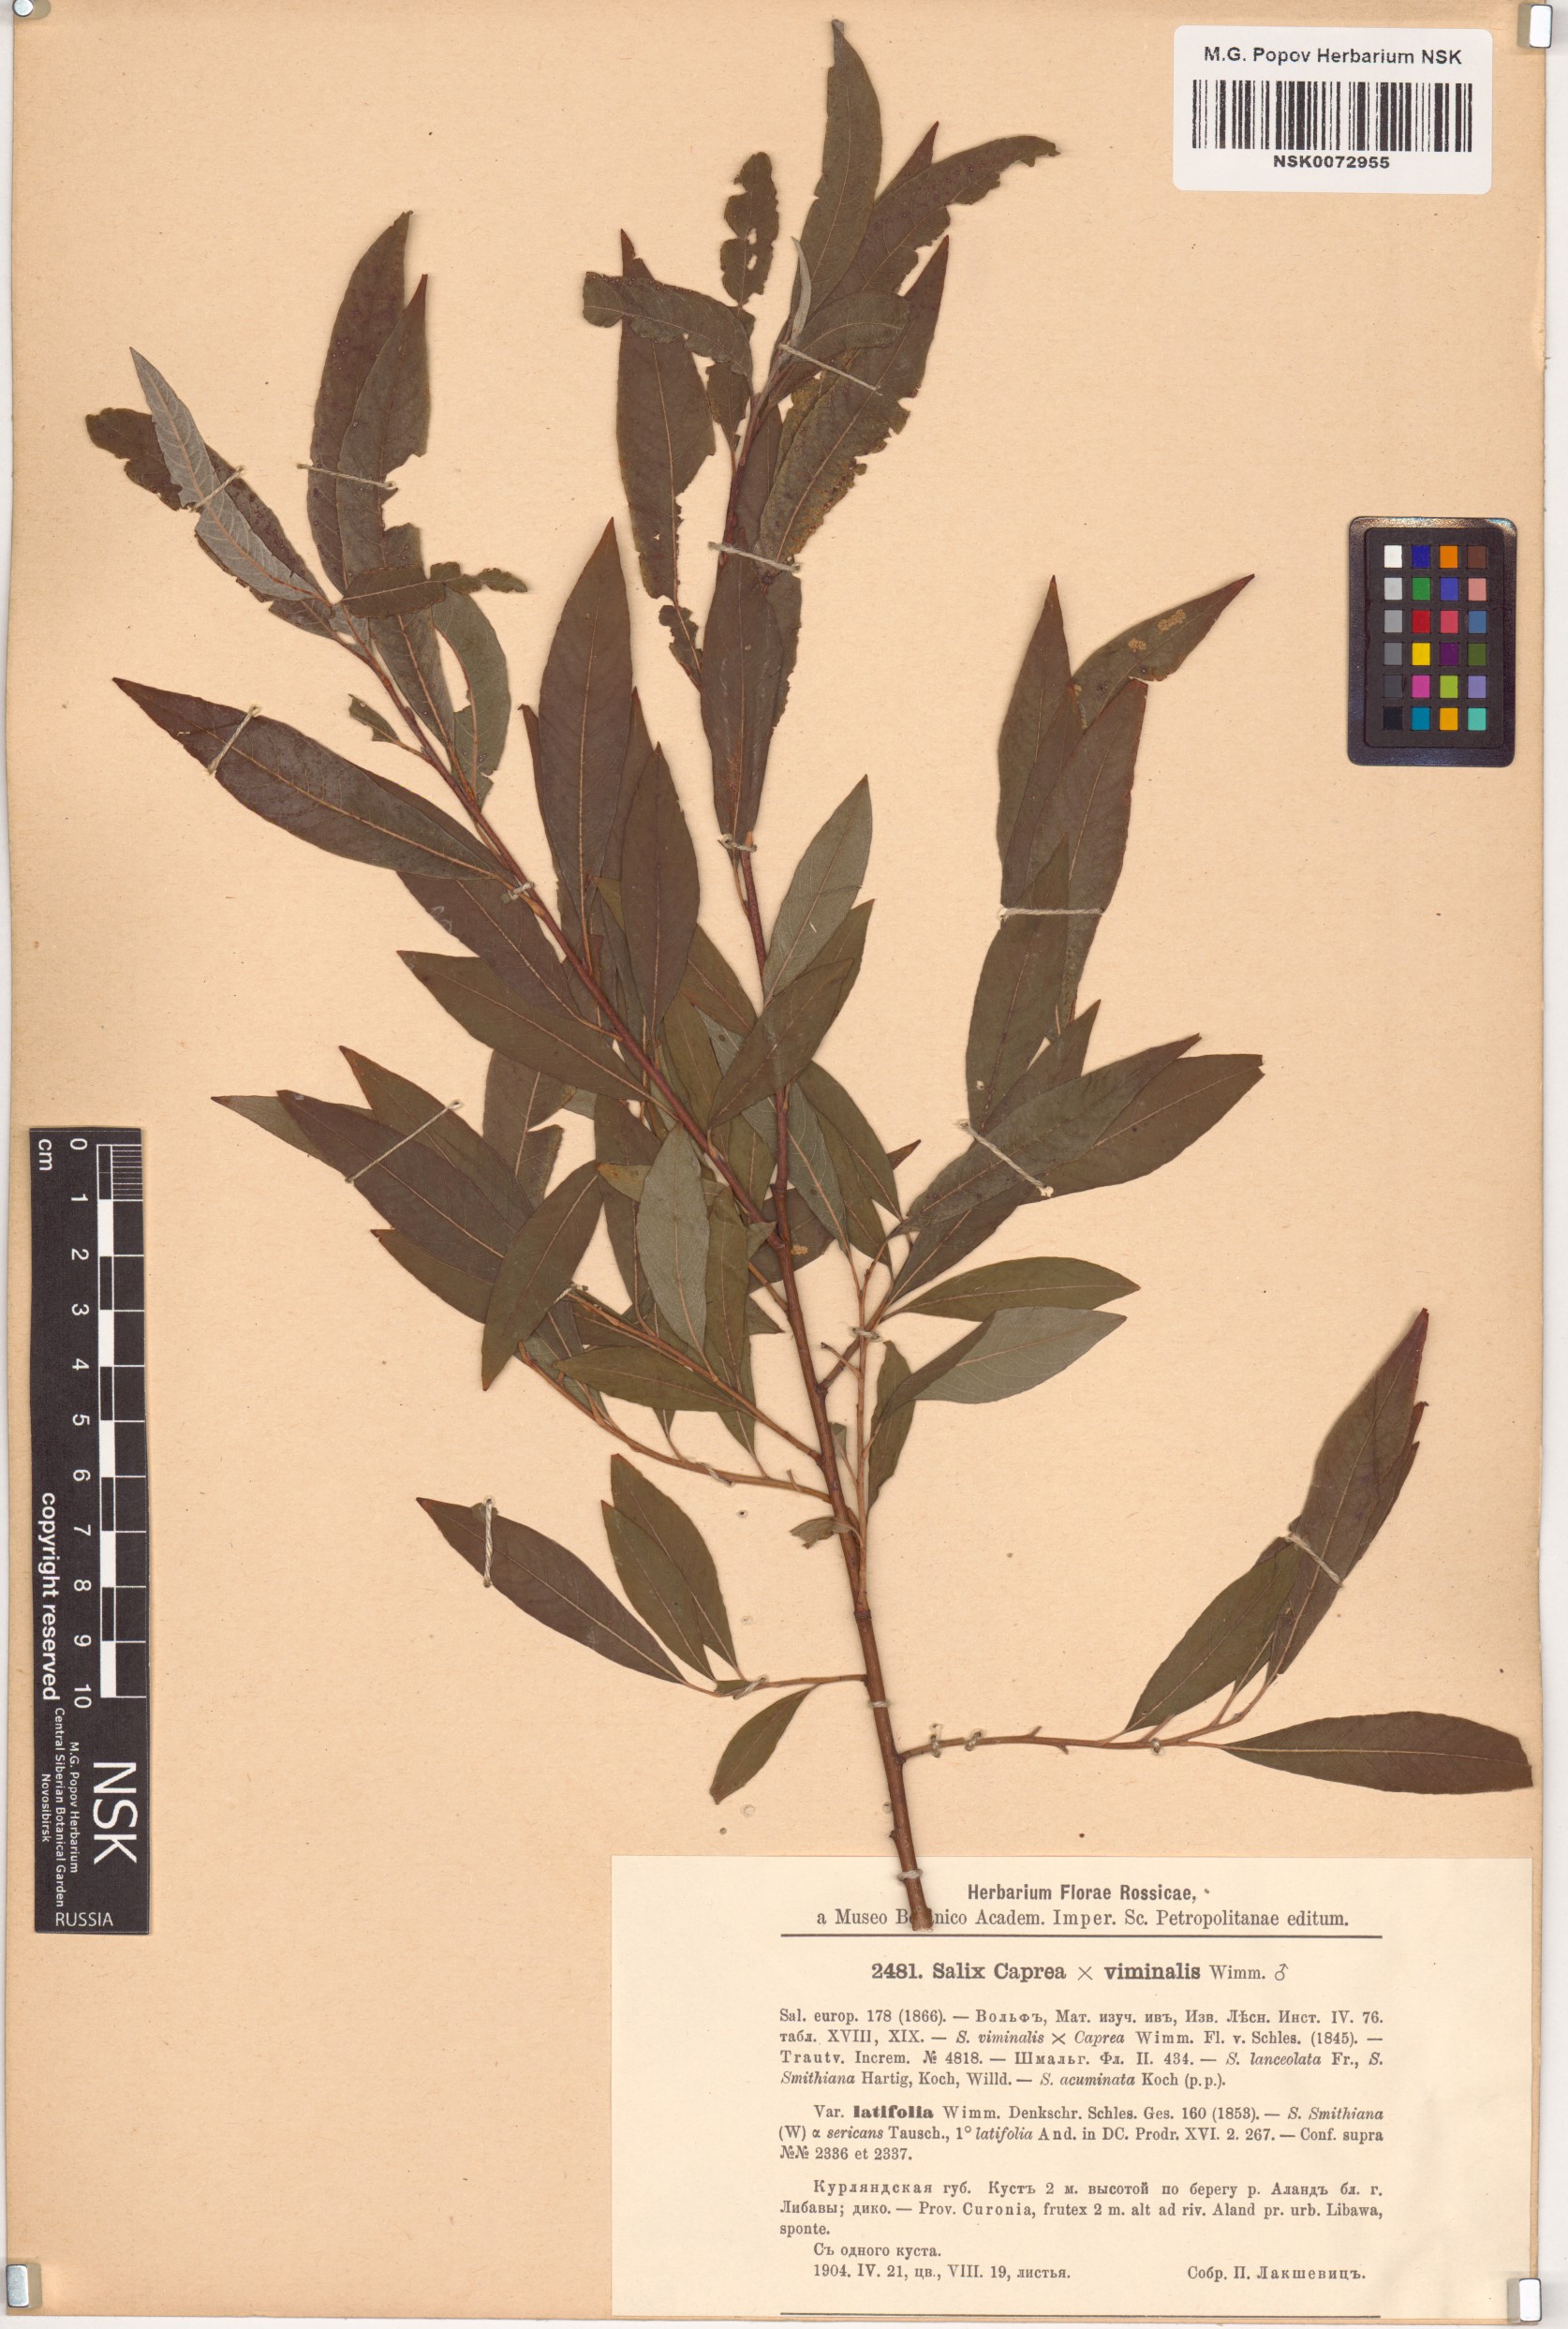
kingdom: Plantae
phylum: Tracheophyta
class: Magnoliopsida
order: Malpighiales
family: Salicaceae
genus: Salix
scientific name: Salix
